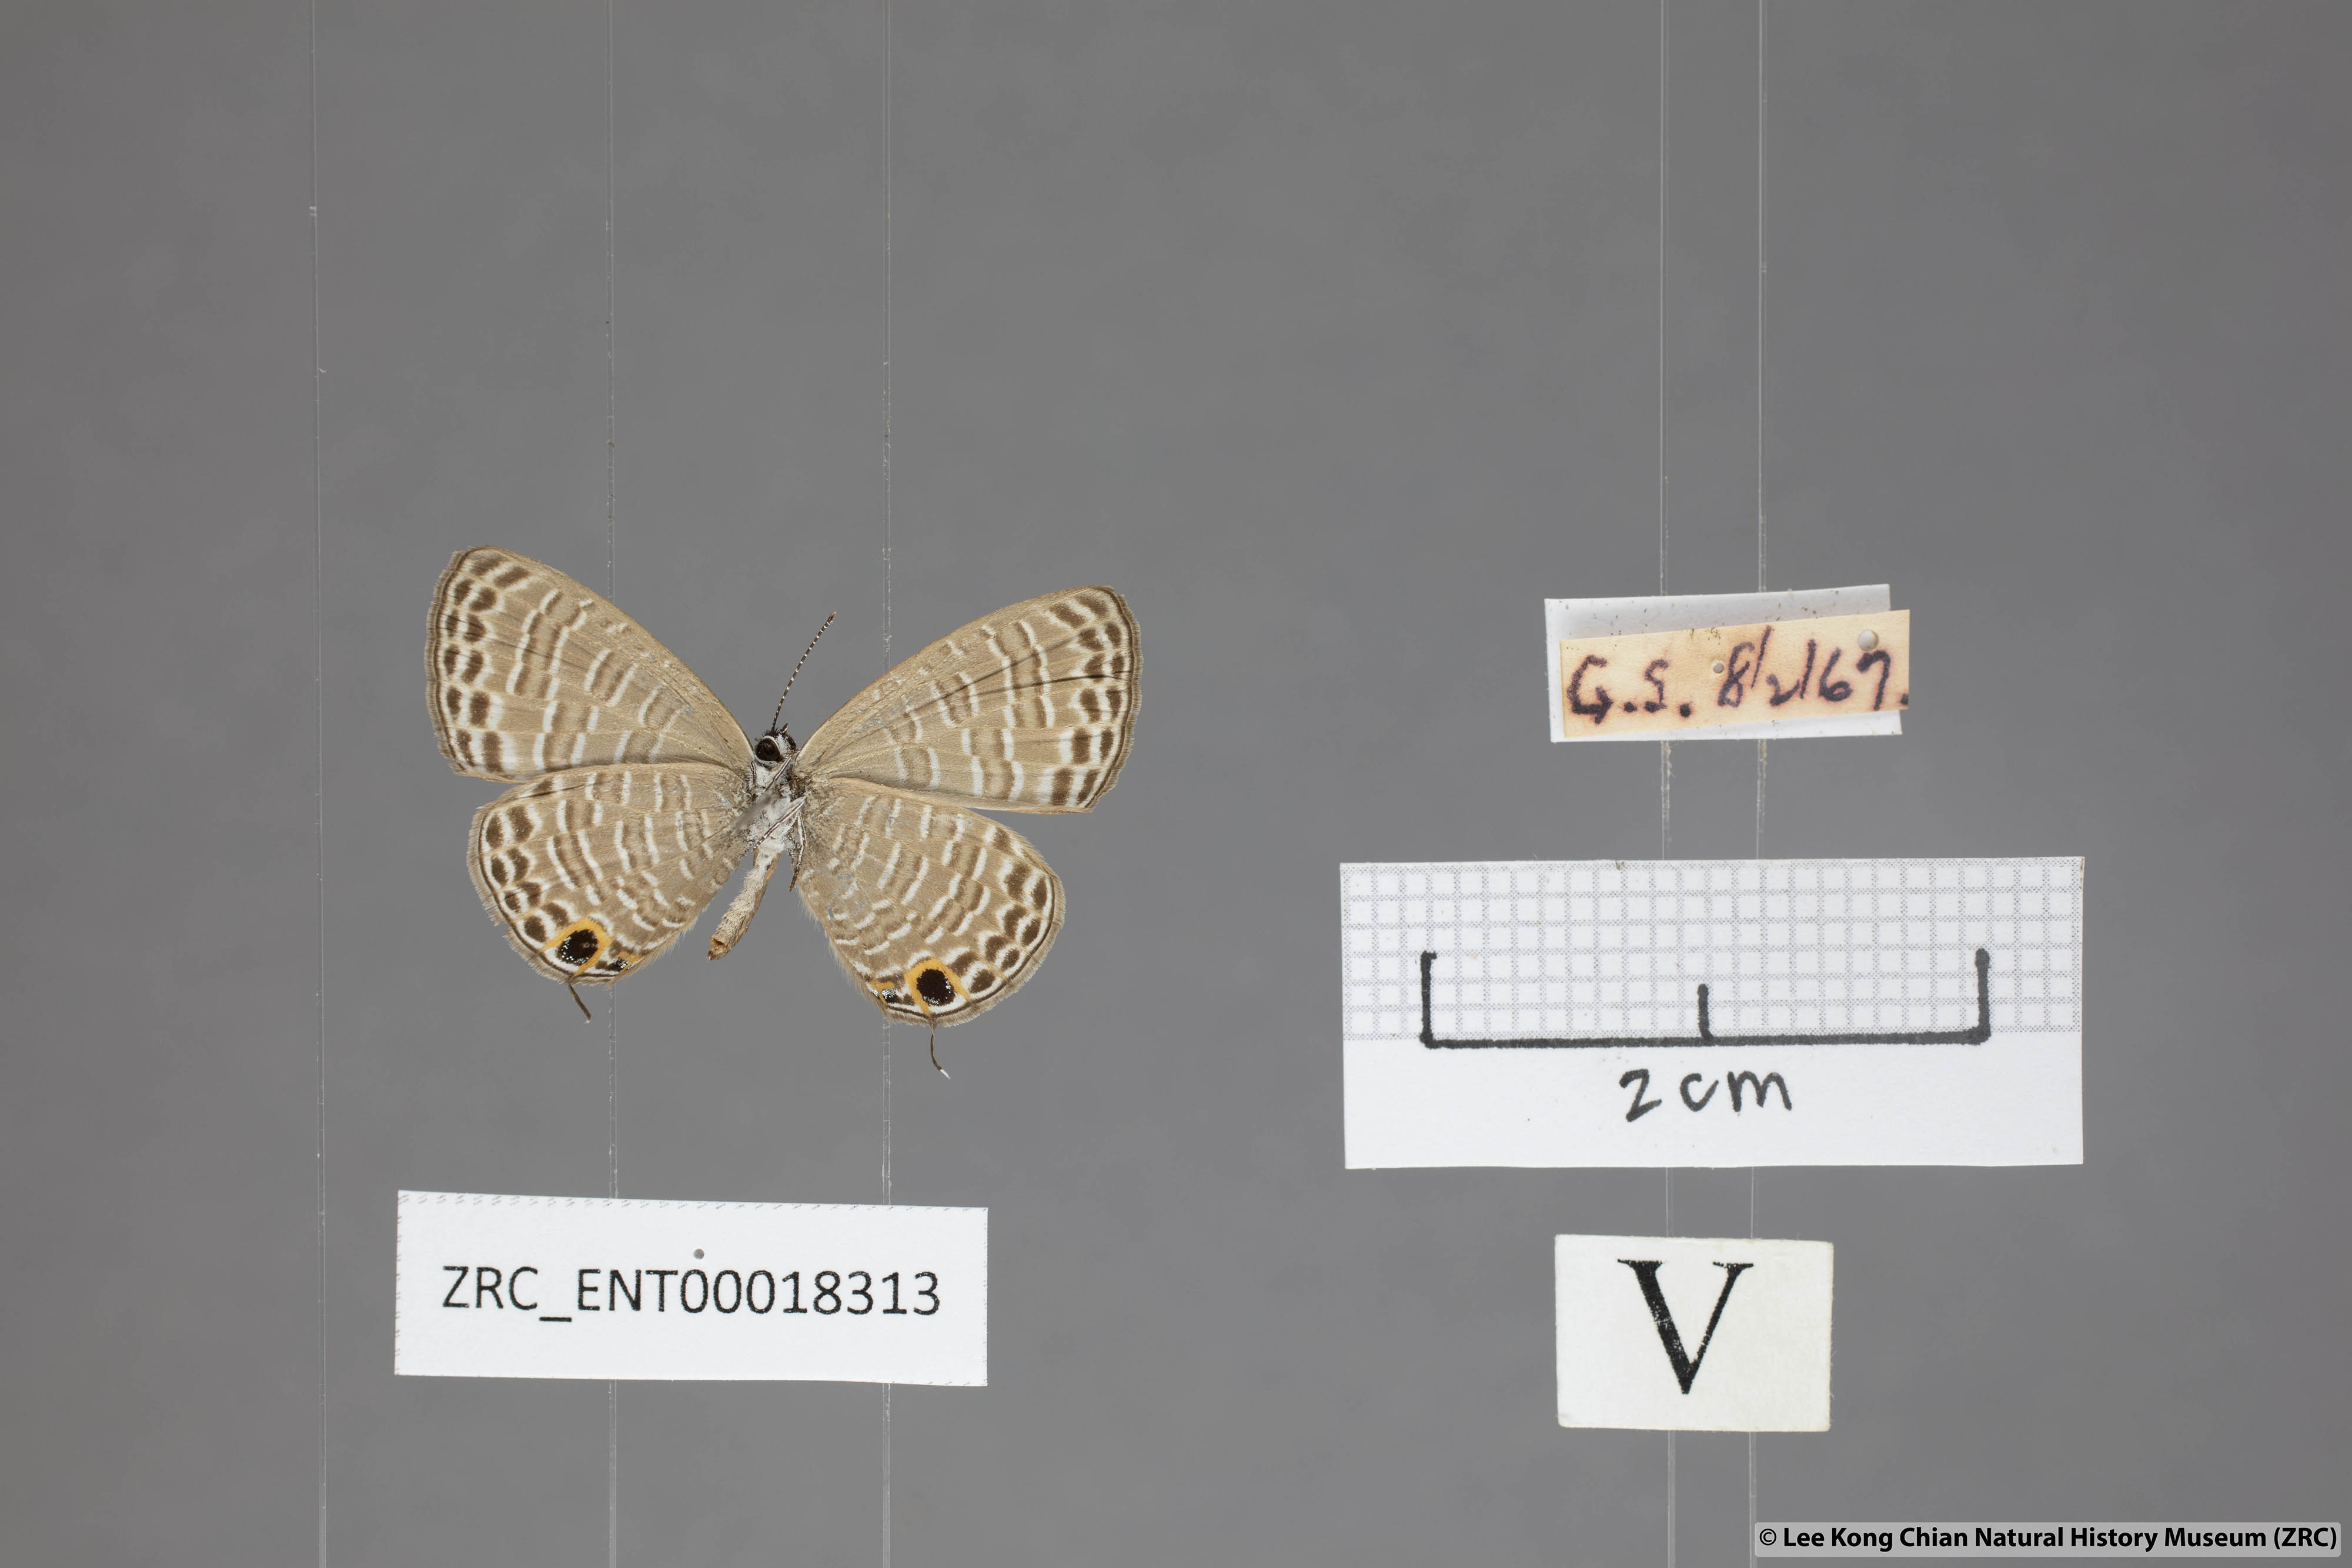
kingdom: Animalia
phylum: Arthropoda
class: Insecta
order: Lepidoptera
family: Lycaenidae
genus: Nacaduba
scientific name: Nacaduba beroe
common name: Opaque sixline blue
